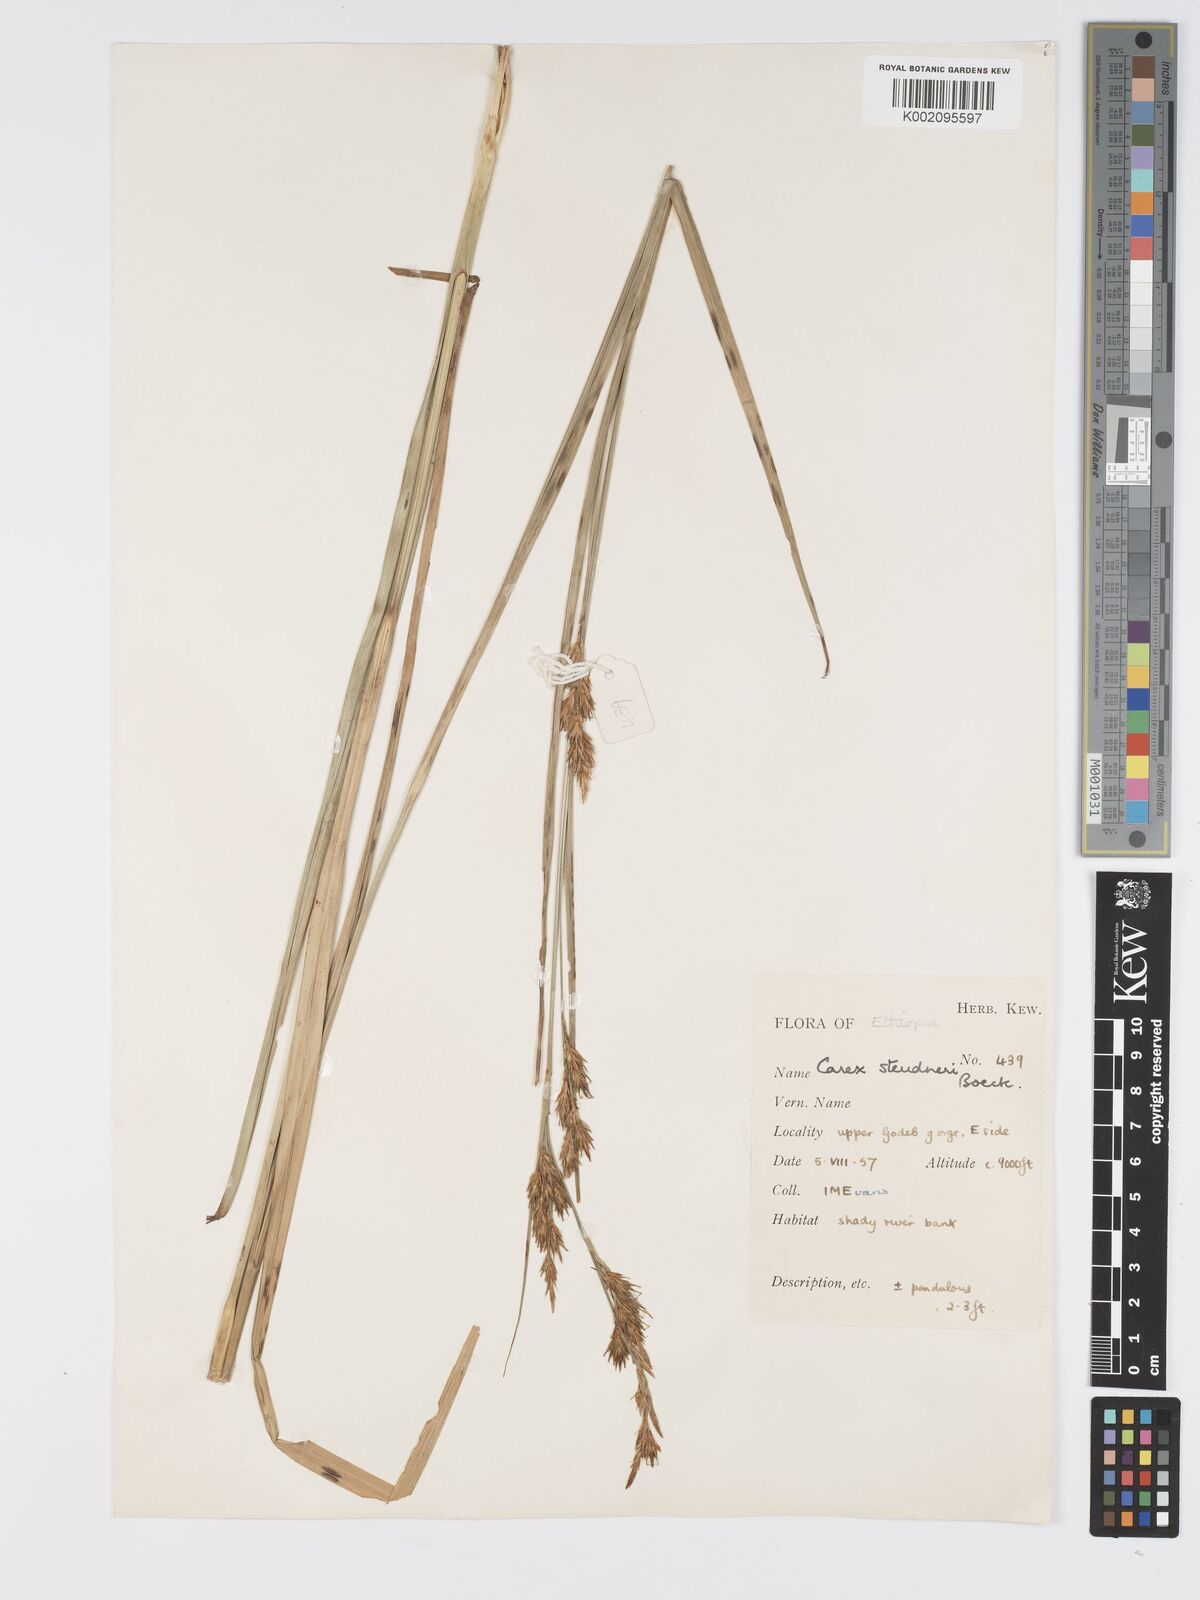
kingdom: Plantae
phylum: Tracheophyta
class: Liliopsida
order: Poales
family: Cyperaceae
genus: Carex
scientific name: Carex steudneri
